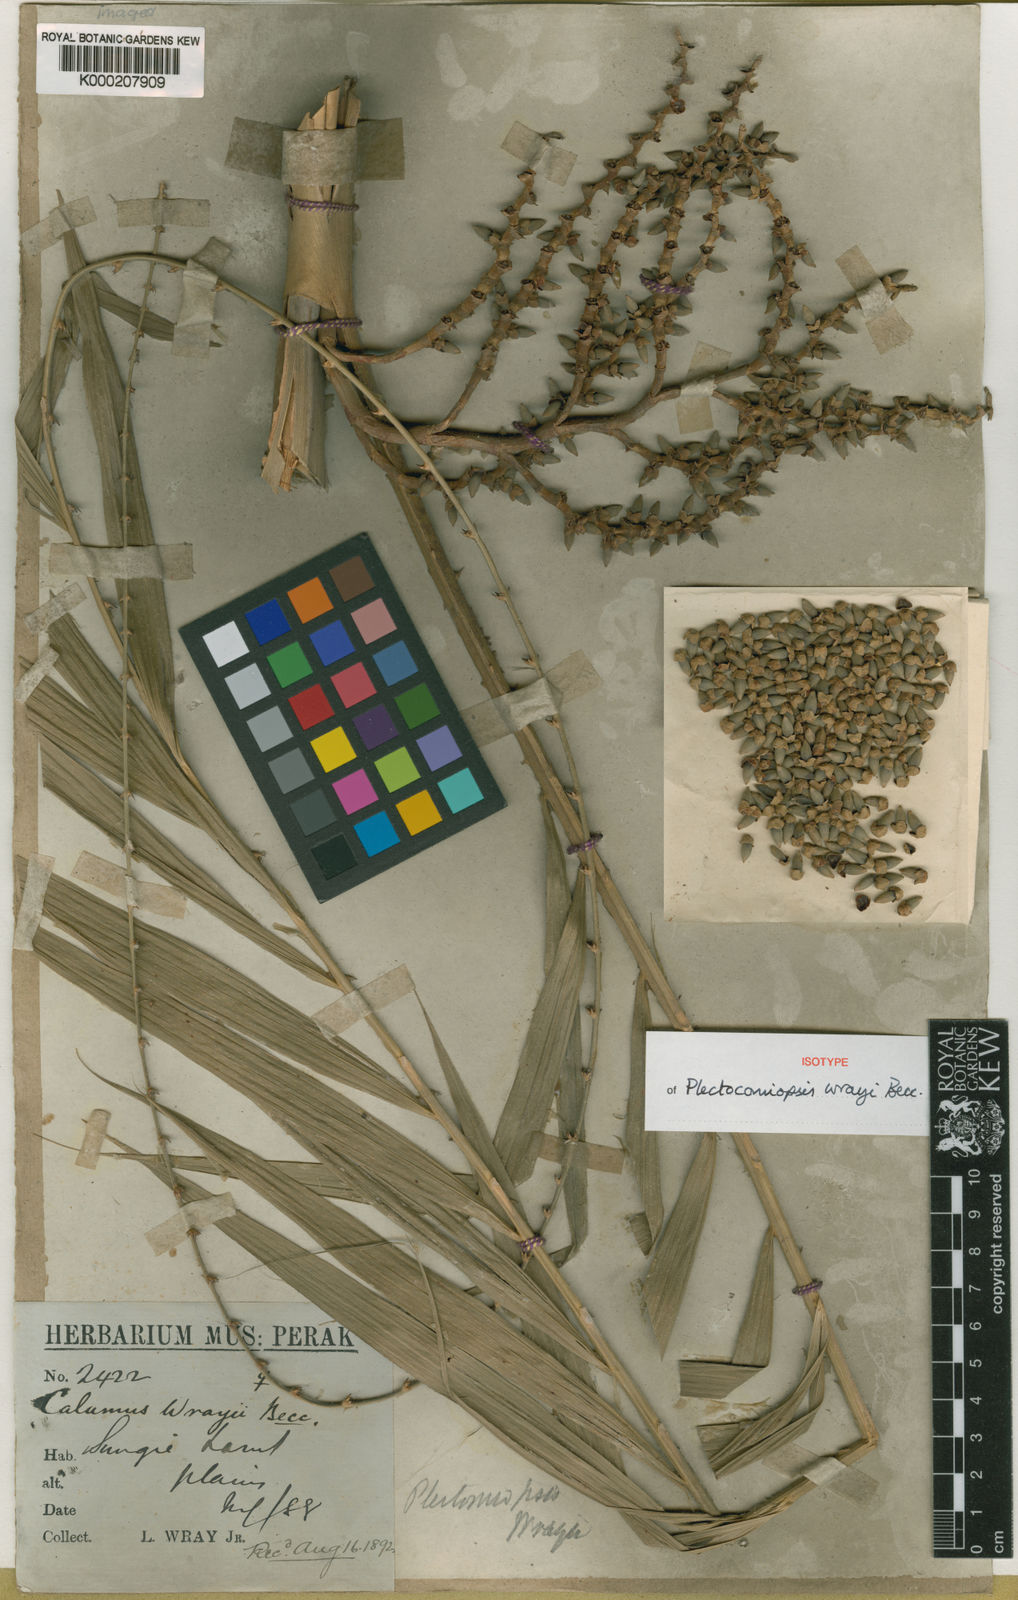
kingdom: Plantae
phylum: Tracheophyta
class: Liliopsida
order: Arecales
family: Arecaceae
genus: Plectocomiopsis
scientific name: Plectocomiopsis wrayi
